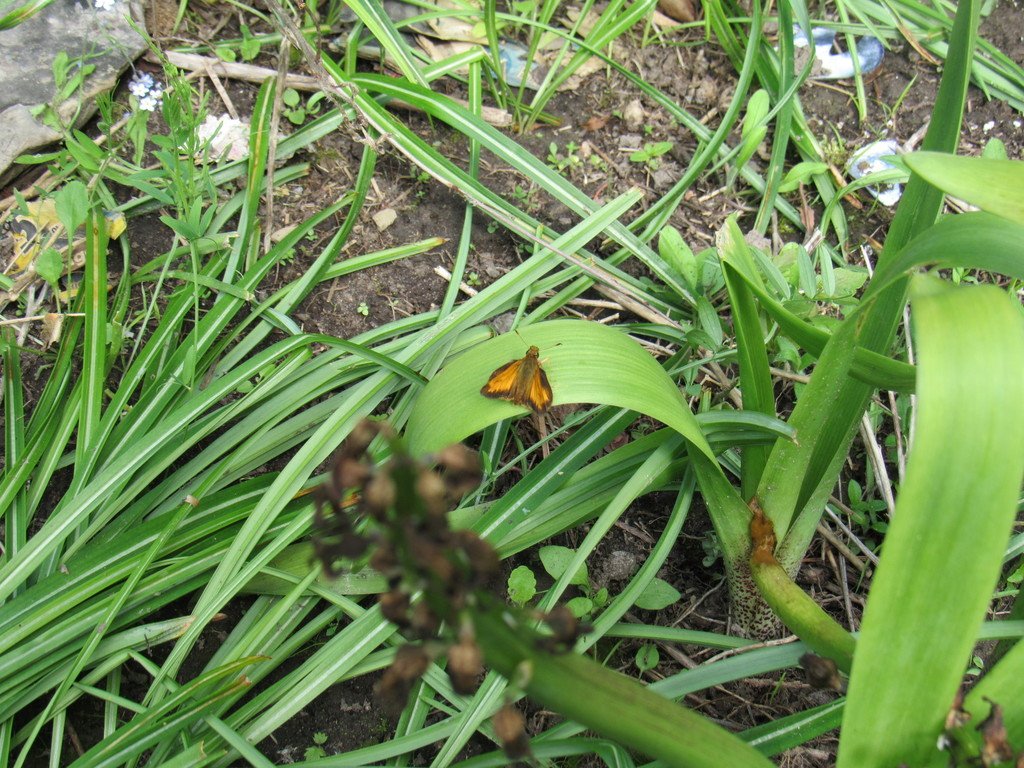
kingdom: Animalia
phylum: Arthropoda
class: Insecta
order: Lepidoptera
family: Hesperiidae
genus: Lon
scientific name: Lon hobomok
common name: Hobomok Skipper
